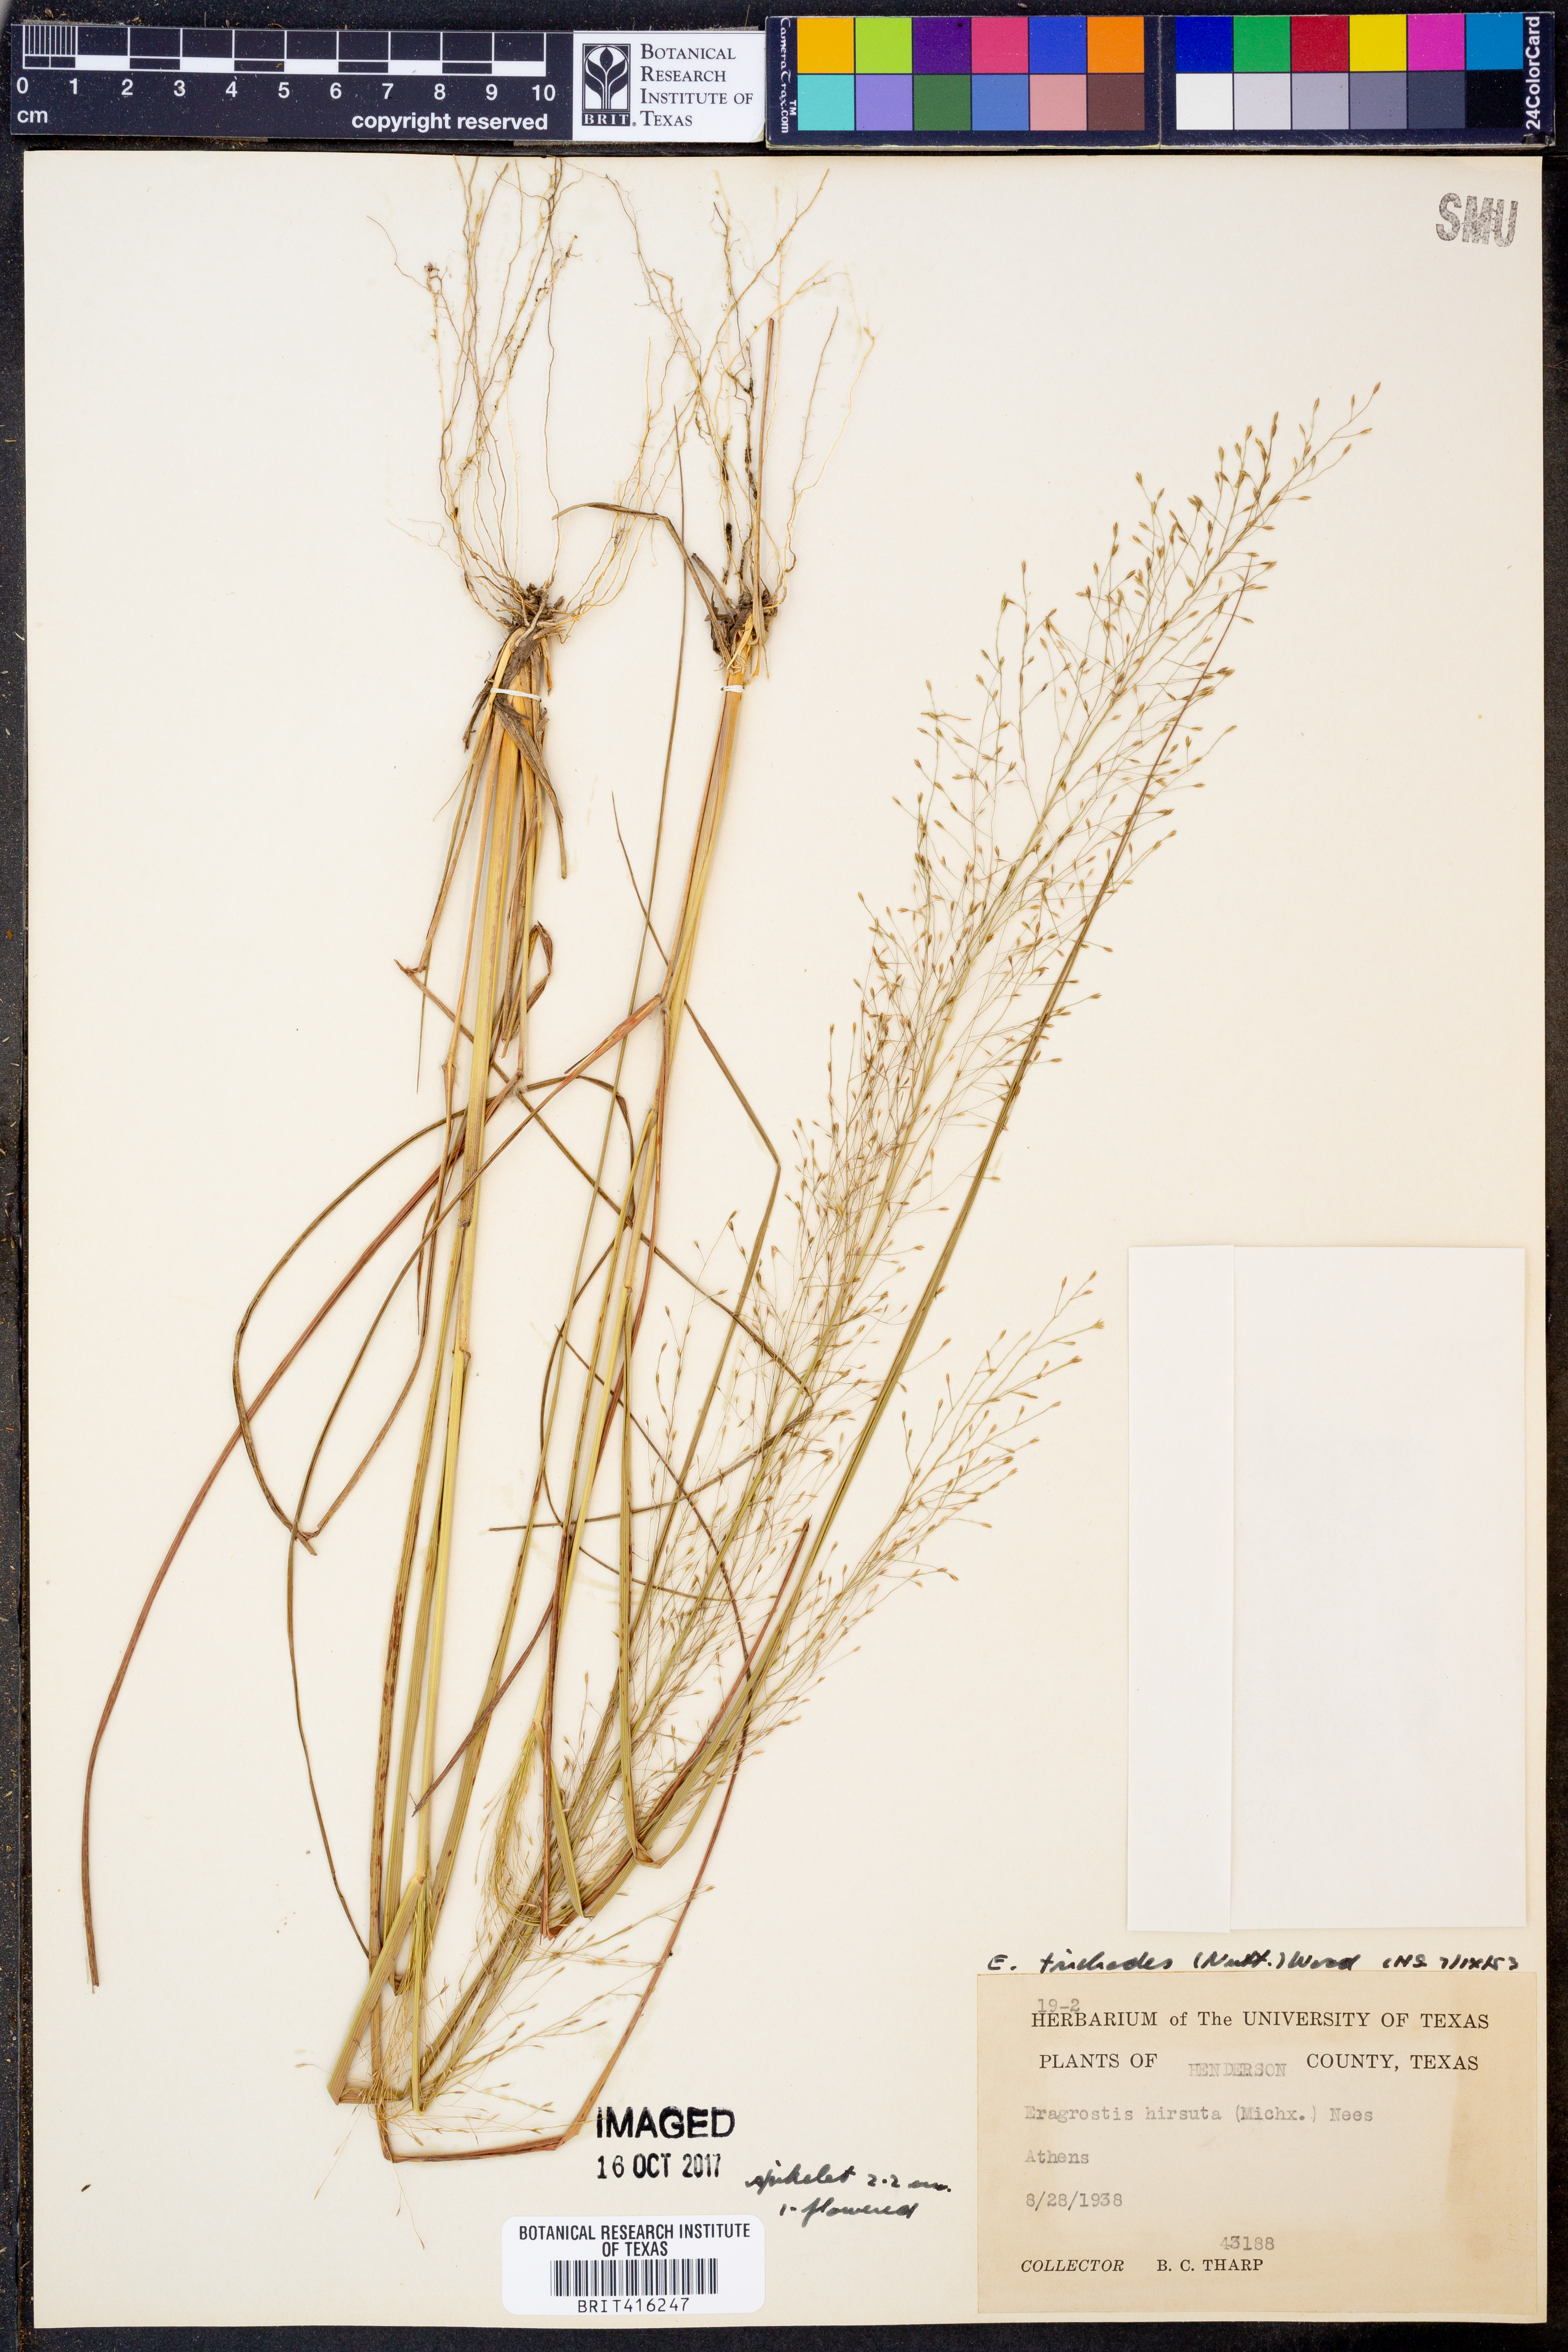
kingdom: Plantae
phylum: Tracheophyta
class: Liliopsida
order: Poales
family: Poaceae
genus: Eragrostis
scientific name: Eragrostis trichodes
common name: Sand love grass
